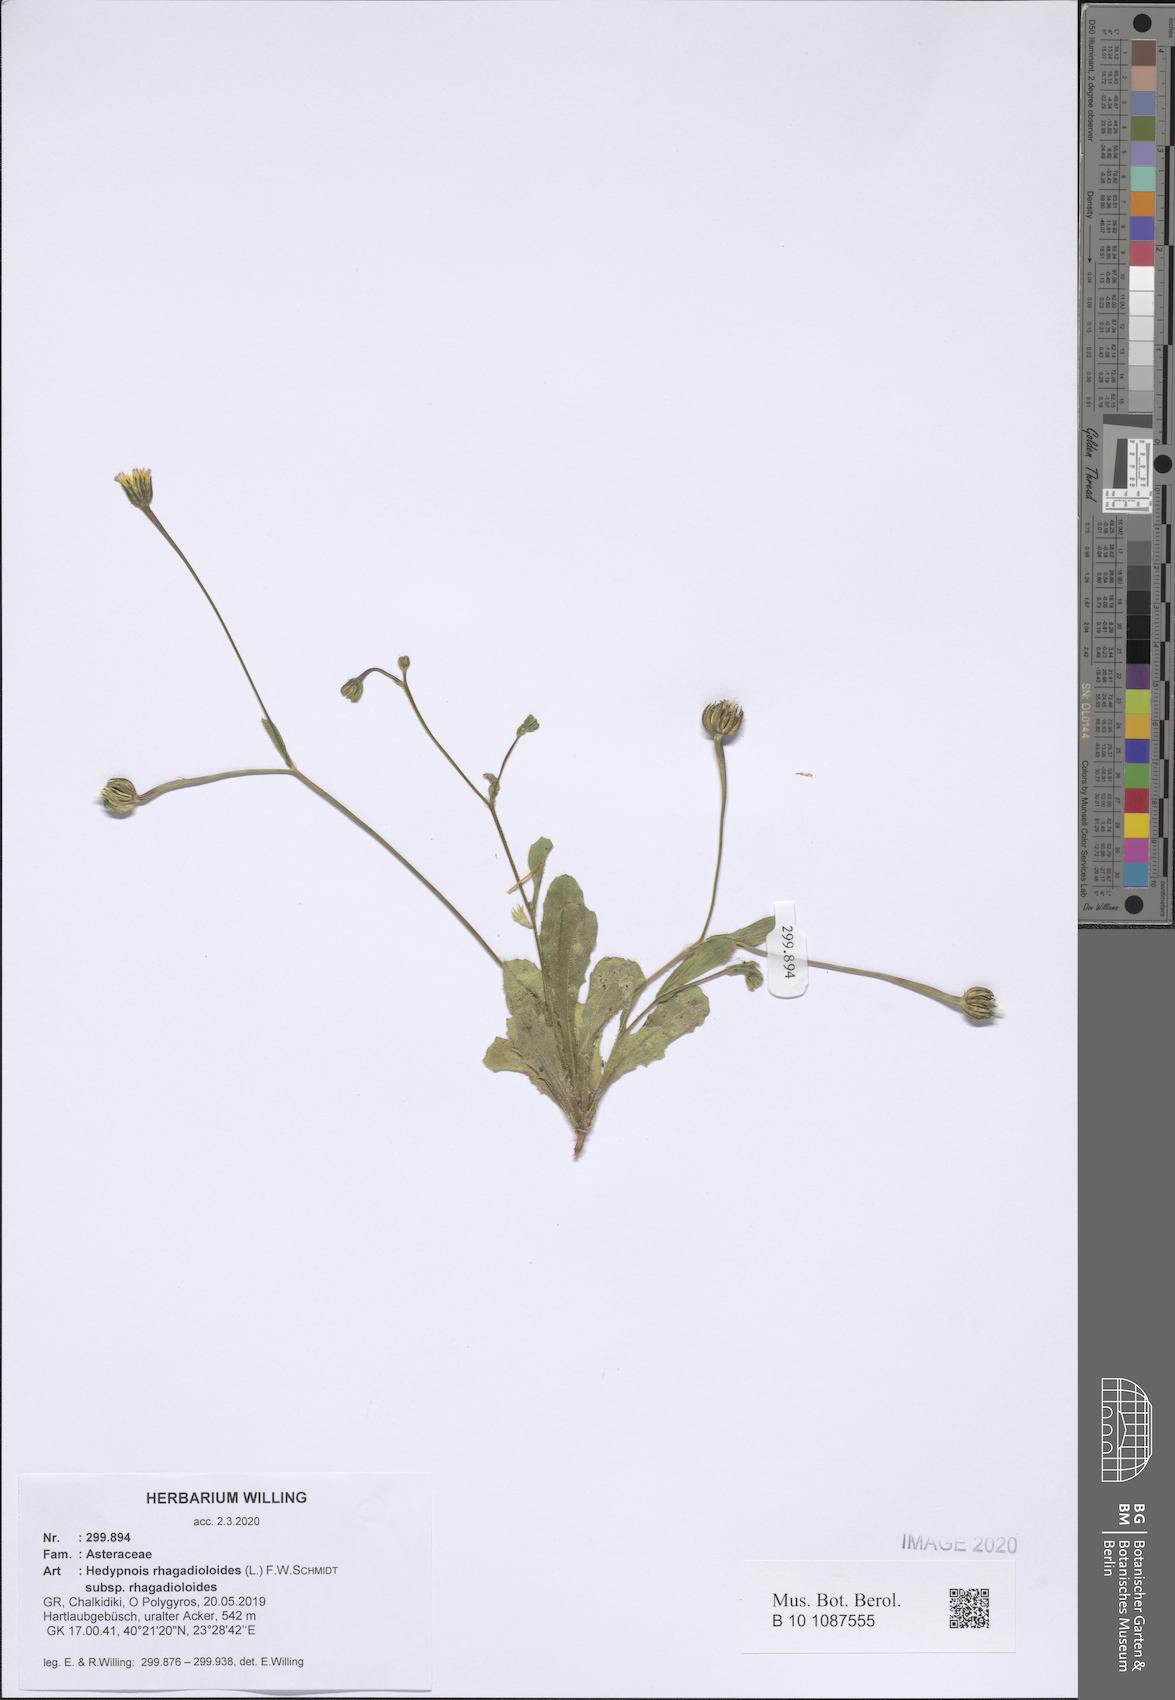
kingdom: Plantae
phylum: Tracheophyta
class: Magnoliopsida
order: Asterales
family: Asteraceae
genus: Hedypnois
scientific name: Hedypnois rhagadioloides
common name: Cretan weed
